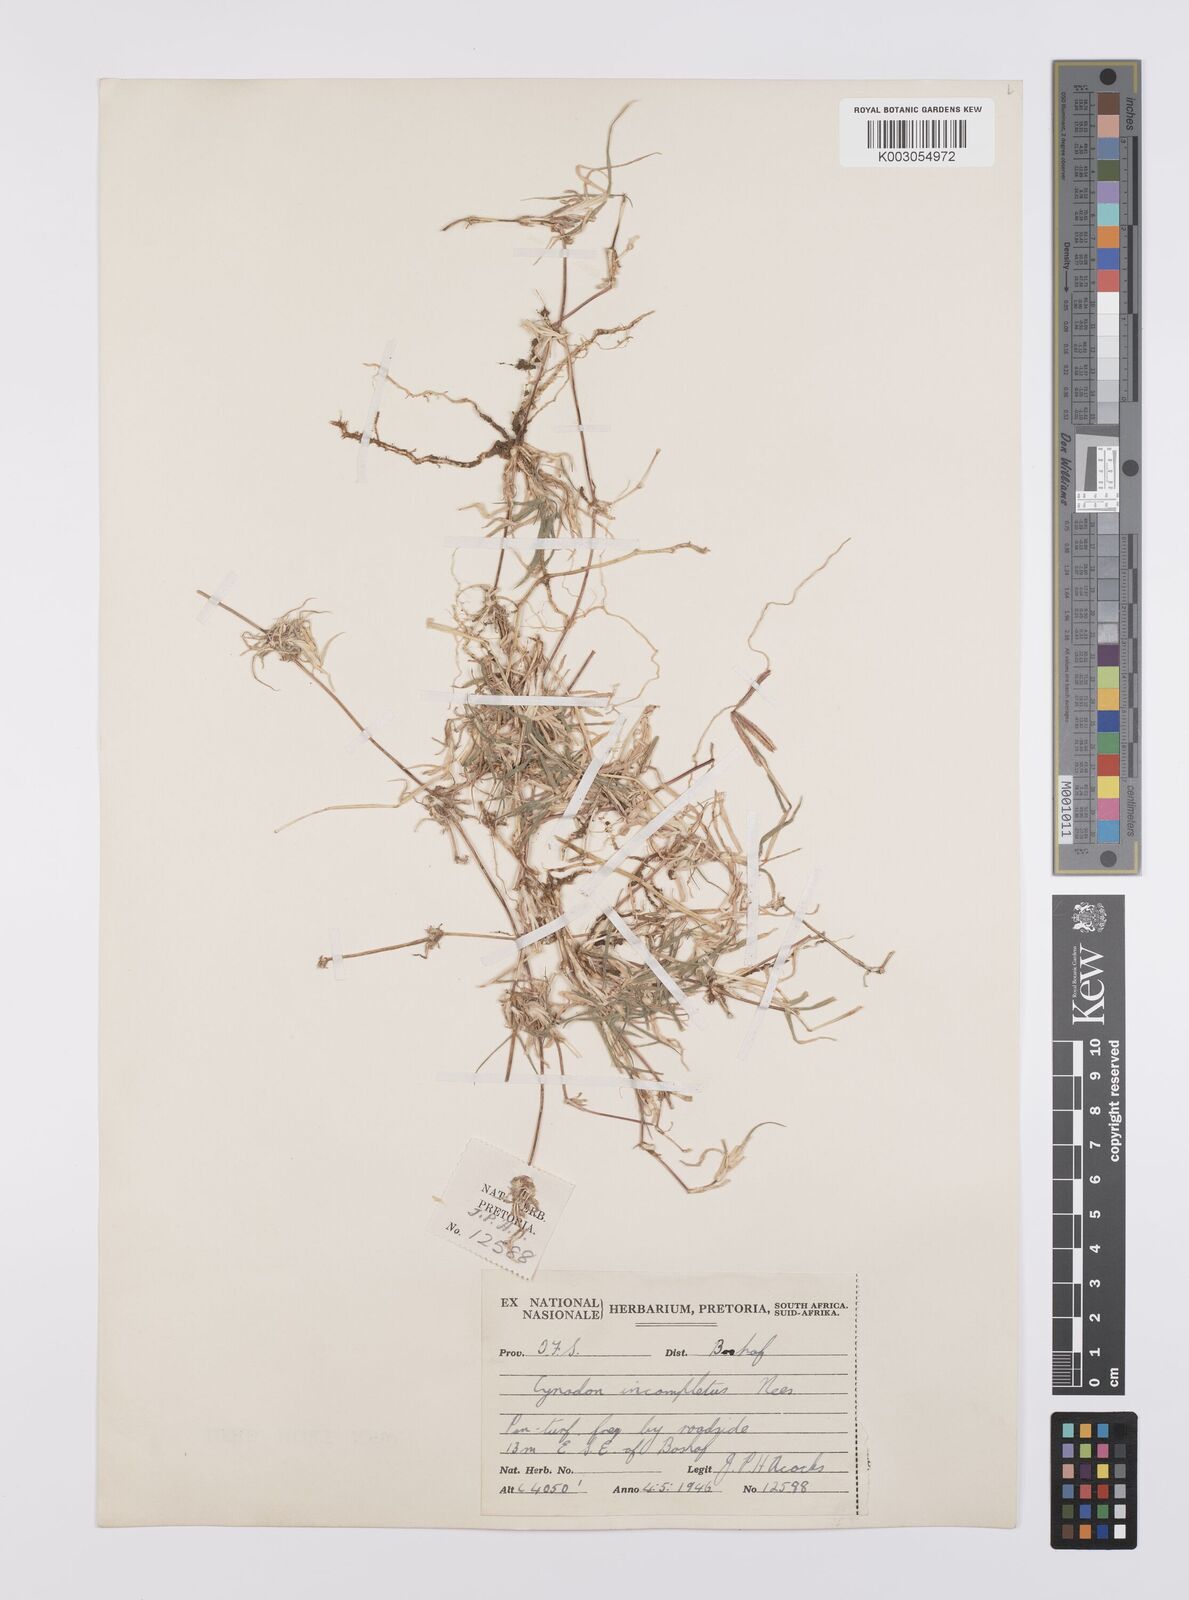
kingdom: Plantae
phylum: Tracheophyta
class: Liliopsida
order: Poales
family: Poaceae
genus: Cynodon
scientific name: Cynodon incompletus
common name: African bermuda-grass
